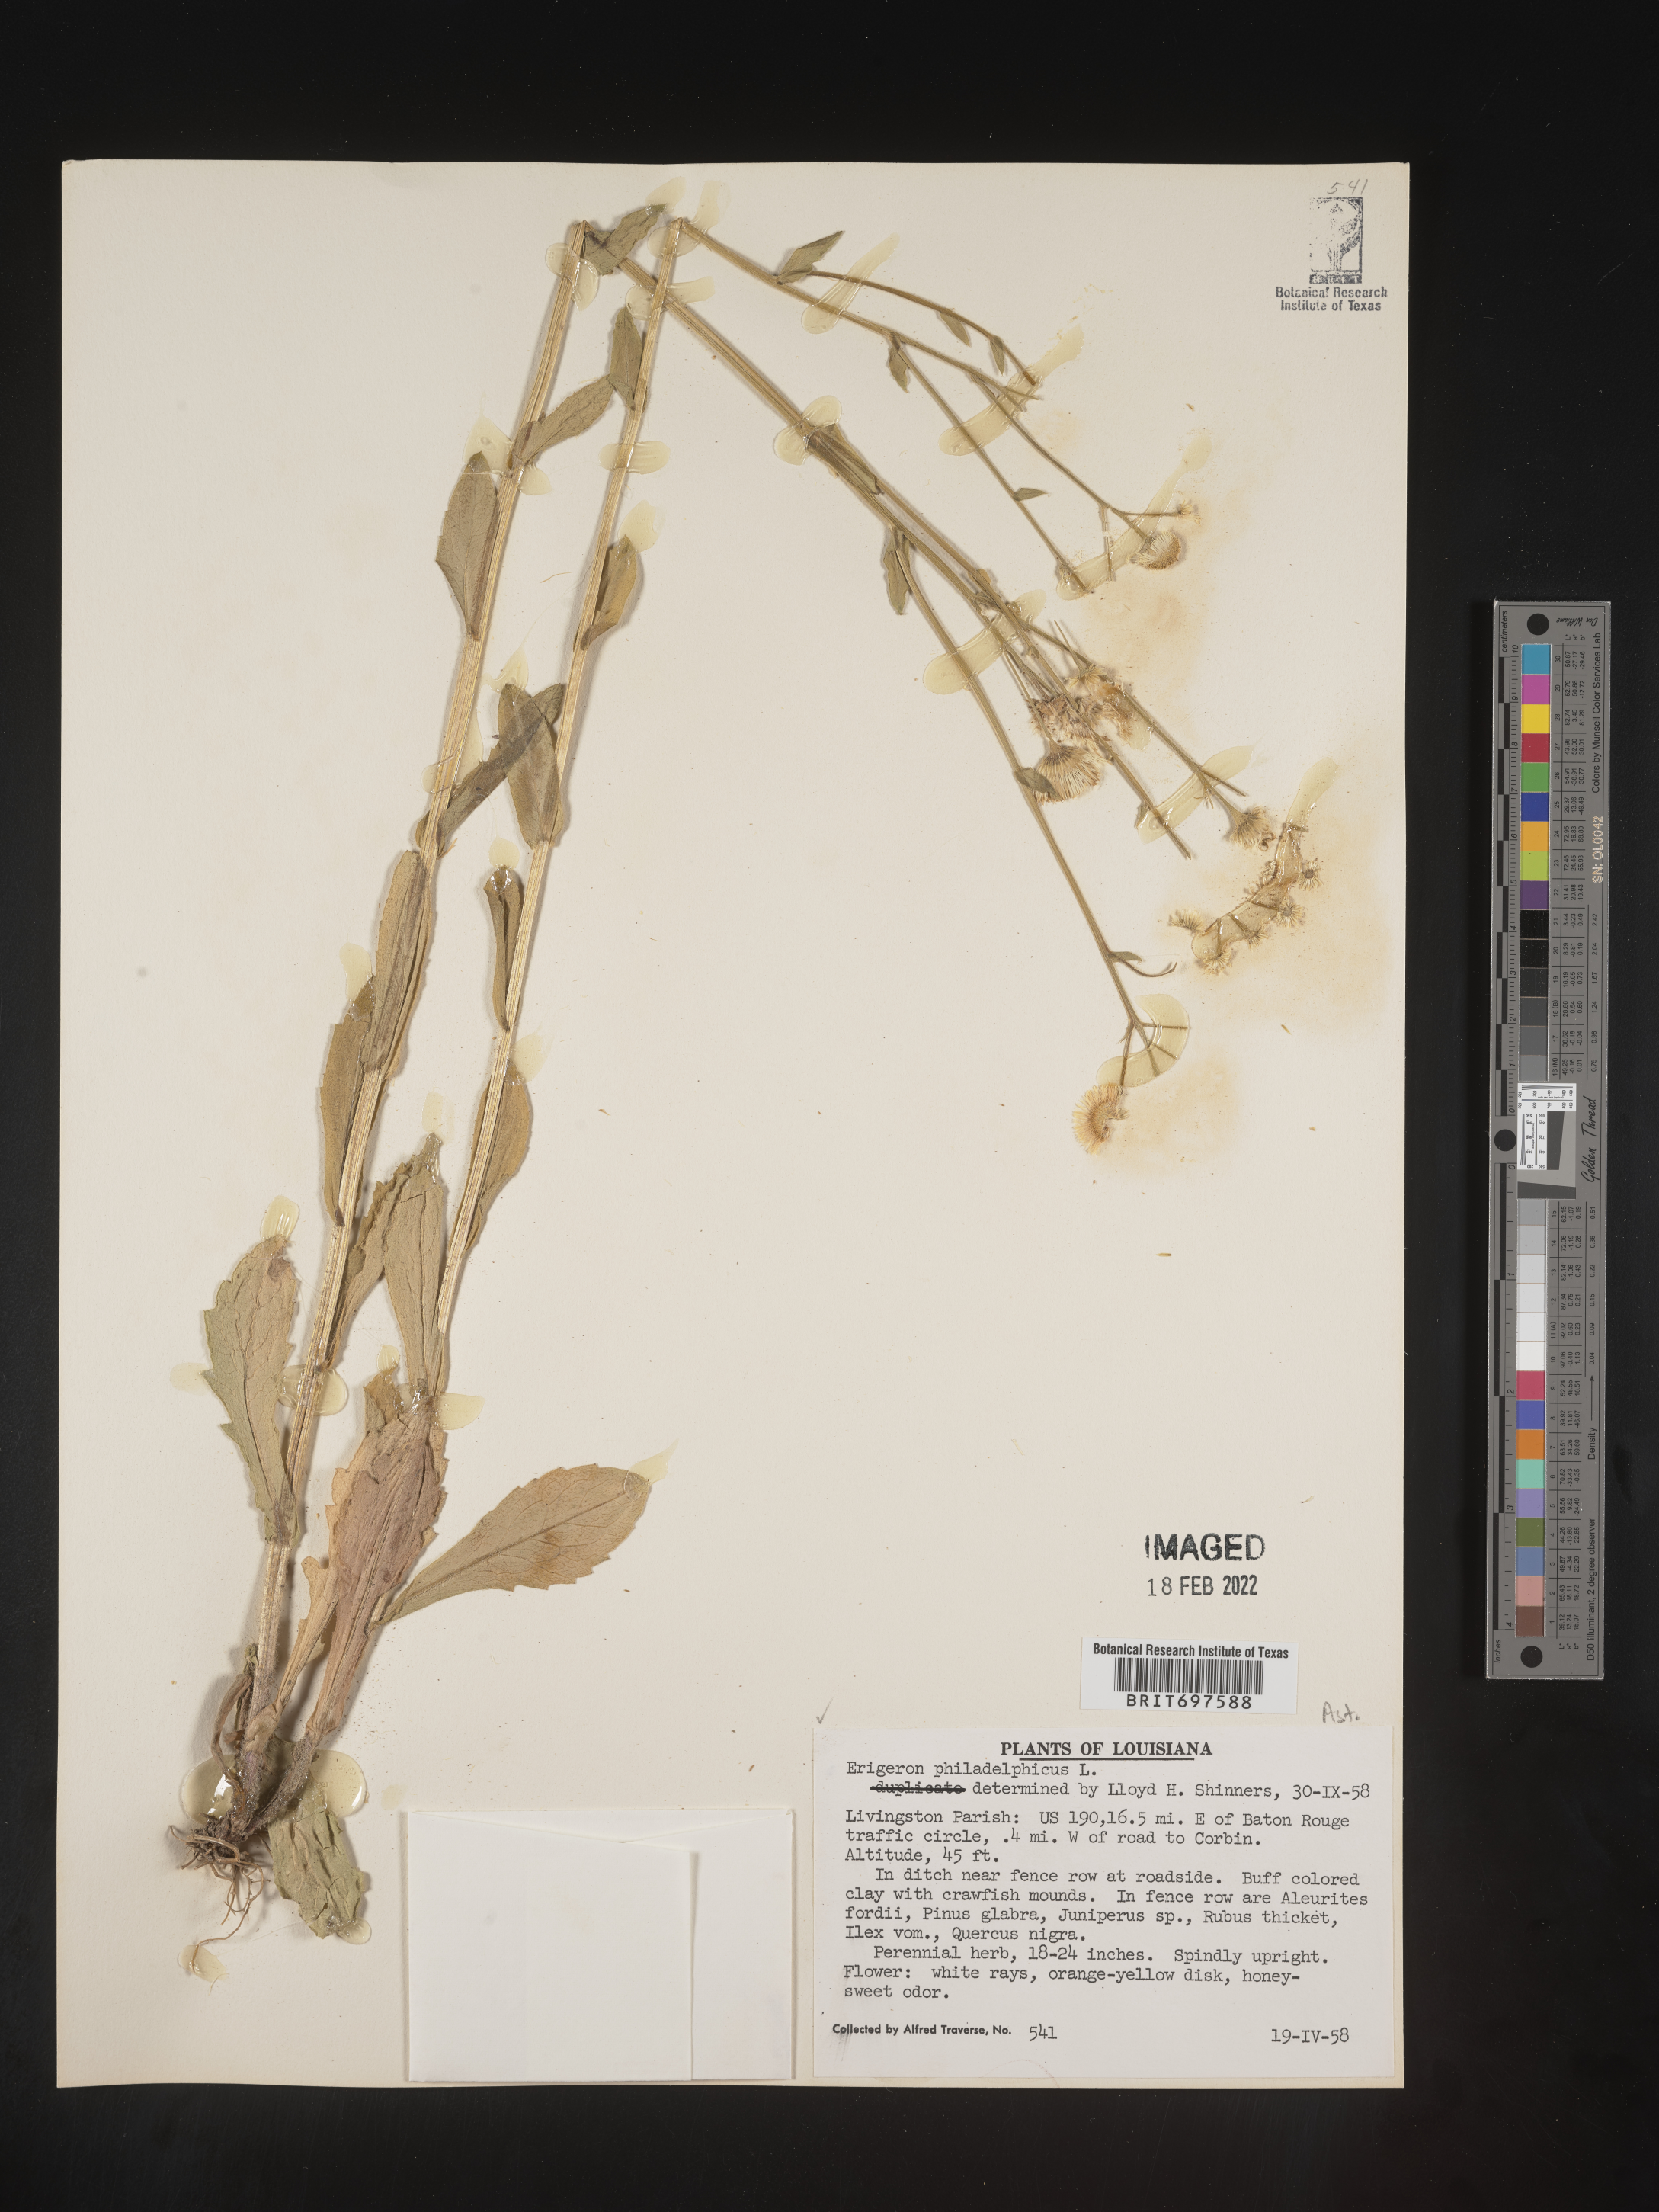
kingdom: Plantae
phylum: Tracheophyta
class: Magnoliopsida
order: Asterales
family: Asteraceae
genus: Erigeron
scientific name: Erigeron philadelphicus
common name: Robin's-plantain
